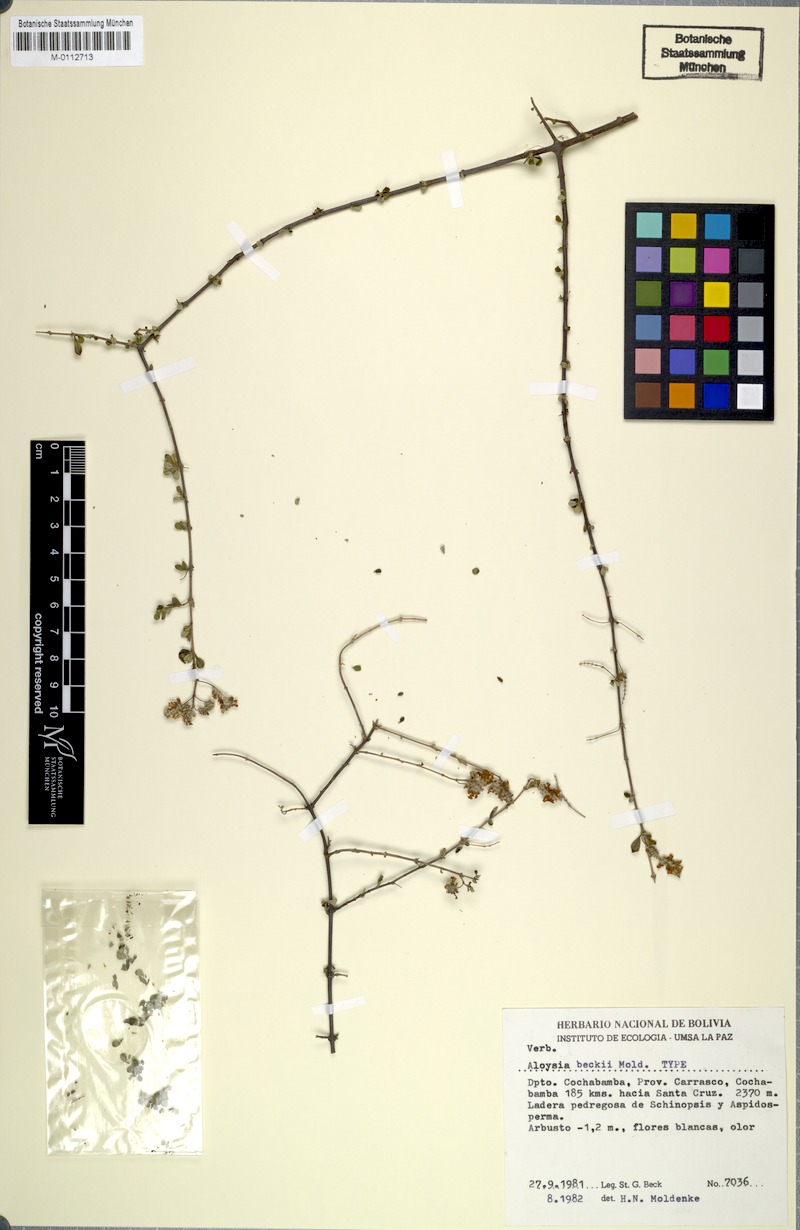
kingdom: Plantae
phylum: Tracheophyta
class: Magnoliopsida
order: Lamiales
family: Verbenaceae
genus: Aloysia
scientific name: Aloysia oblanceolata
